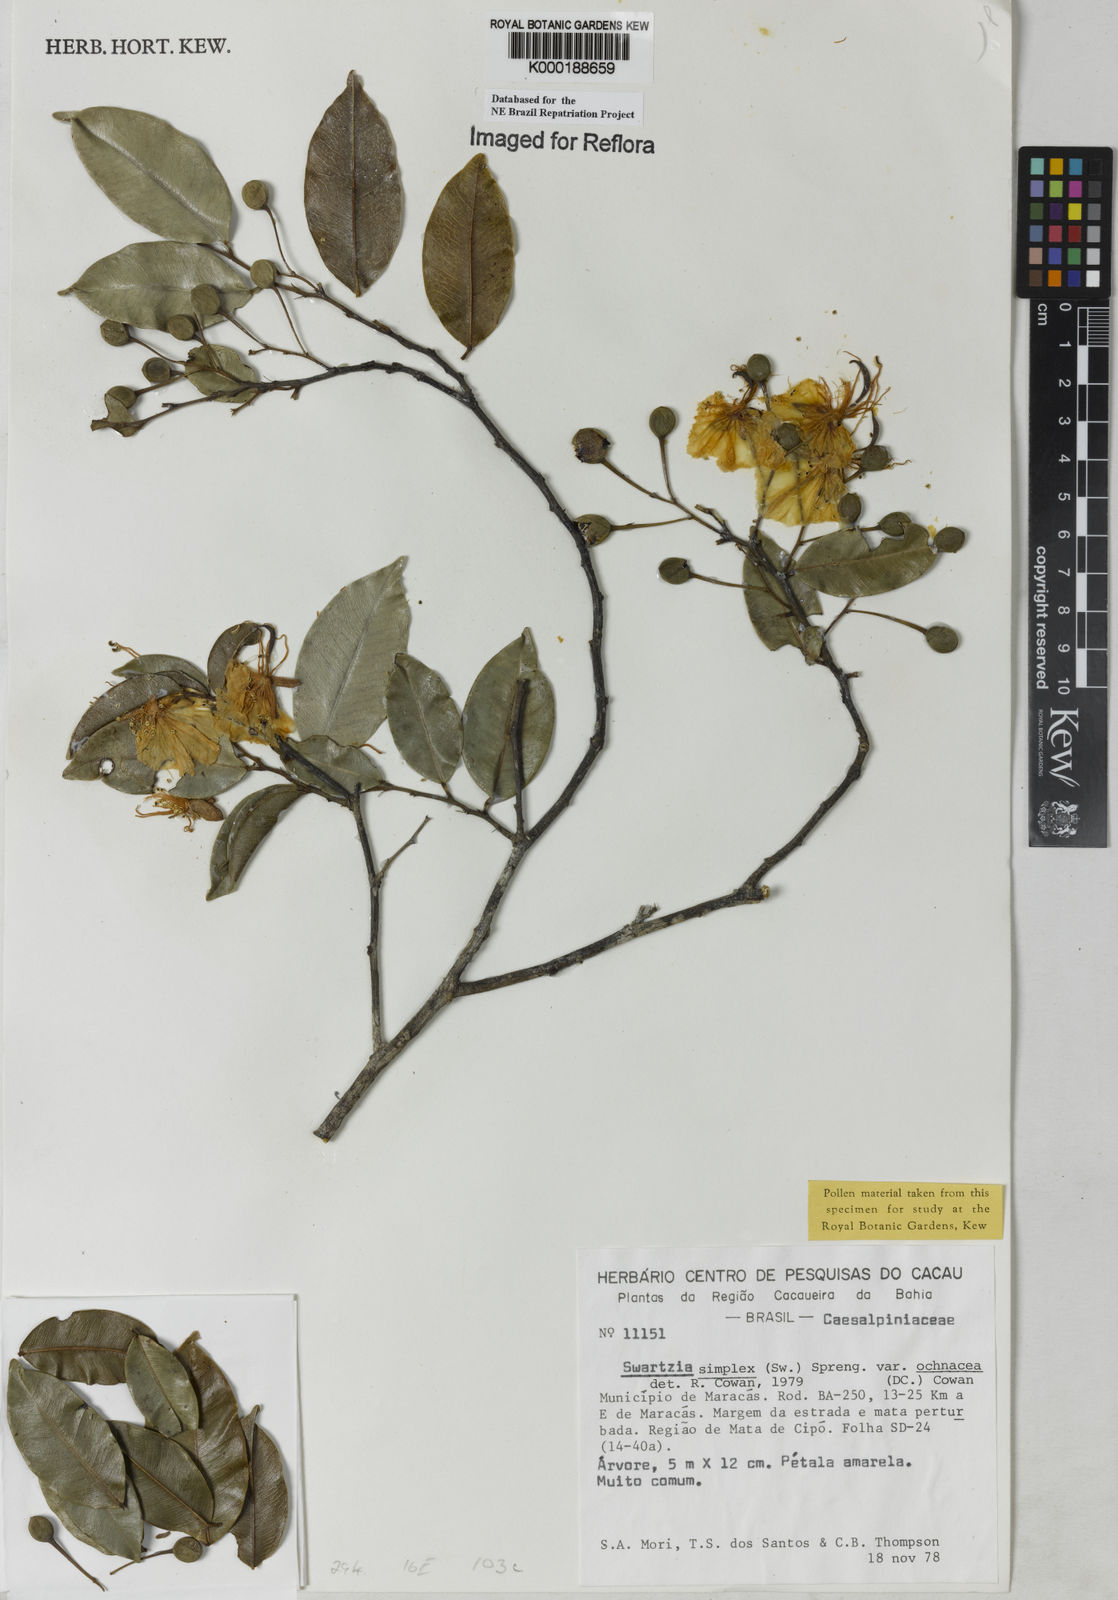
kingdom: Plantae
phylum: Tracheophyta
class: Magnoliopsida
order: Fabales
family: Fabaceae
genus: Swartzia
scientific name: Swartzia simplex
